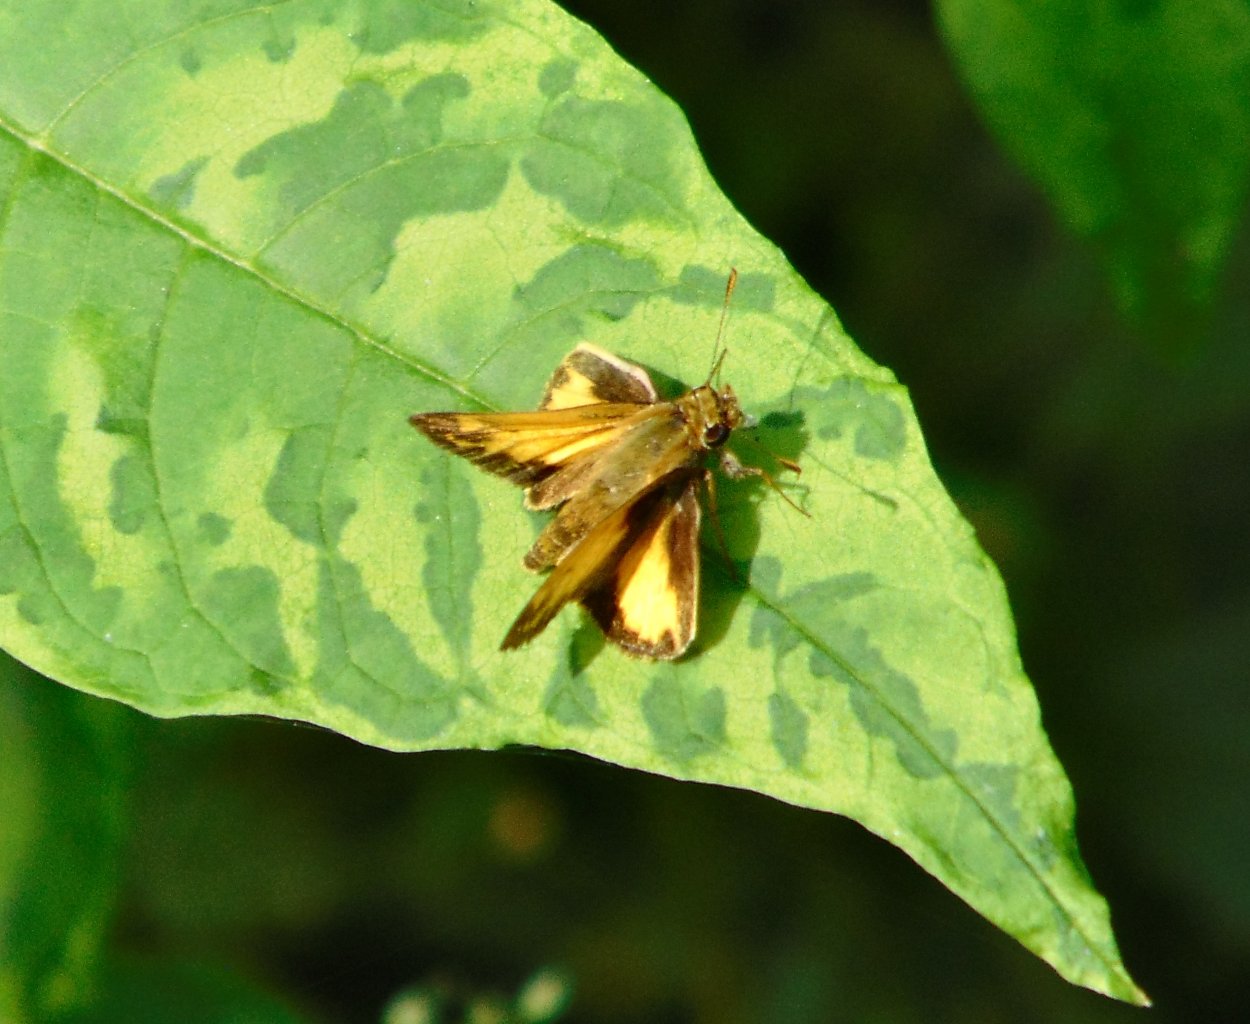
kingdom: Animalia
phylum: Arthropoda
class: Insecta
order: Lepidoptera
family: Hesperiidae
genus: Lon
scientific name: Lon zabulon
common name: Zabulon Skipper
